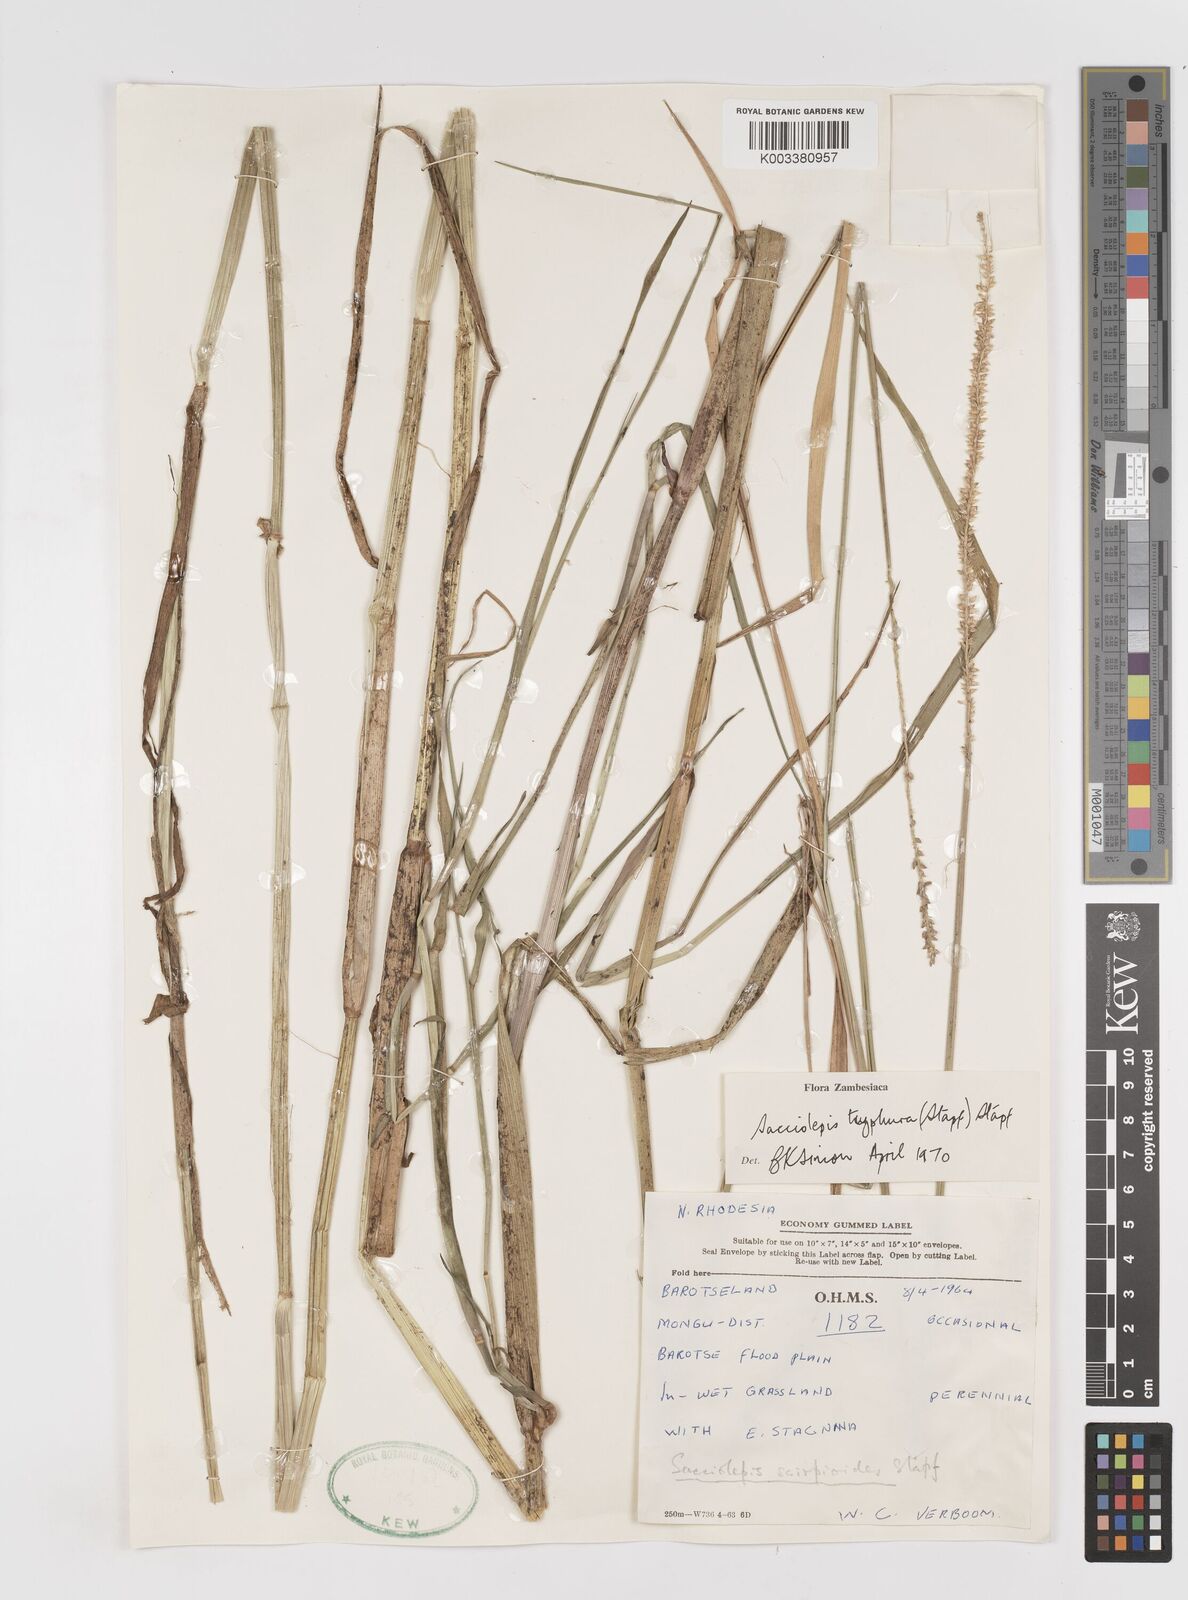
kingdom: Plantae
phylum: Tracheophyta
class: Liliopsida
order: Poales
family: Poaceae
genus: Sacciolepis
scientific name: Sacciolepis typhura
